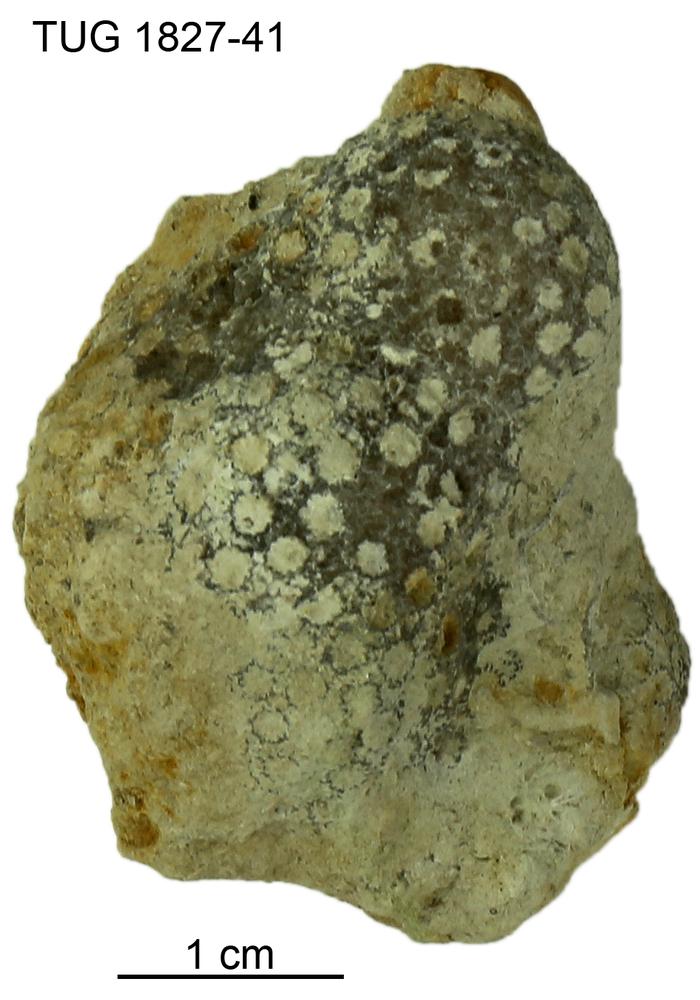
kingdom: Animalia
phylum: Xenacoelomorpha
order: Acoela
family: Proporidae
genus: Propora
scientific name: Propora
